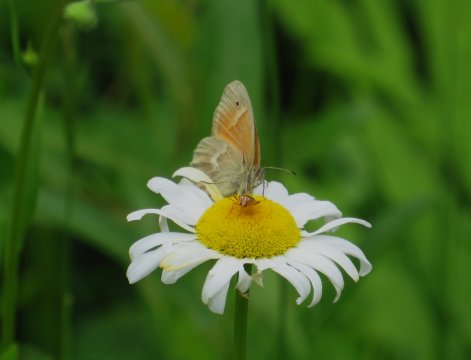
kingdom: Animalia
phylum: Arthropoda
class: Insecta
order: Lepidoptera
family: Nymphalidae
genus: Coenonympha
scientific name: Coenonympha tullia
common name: Large Heath
